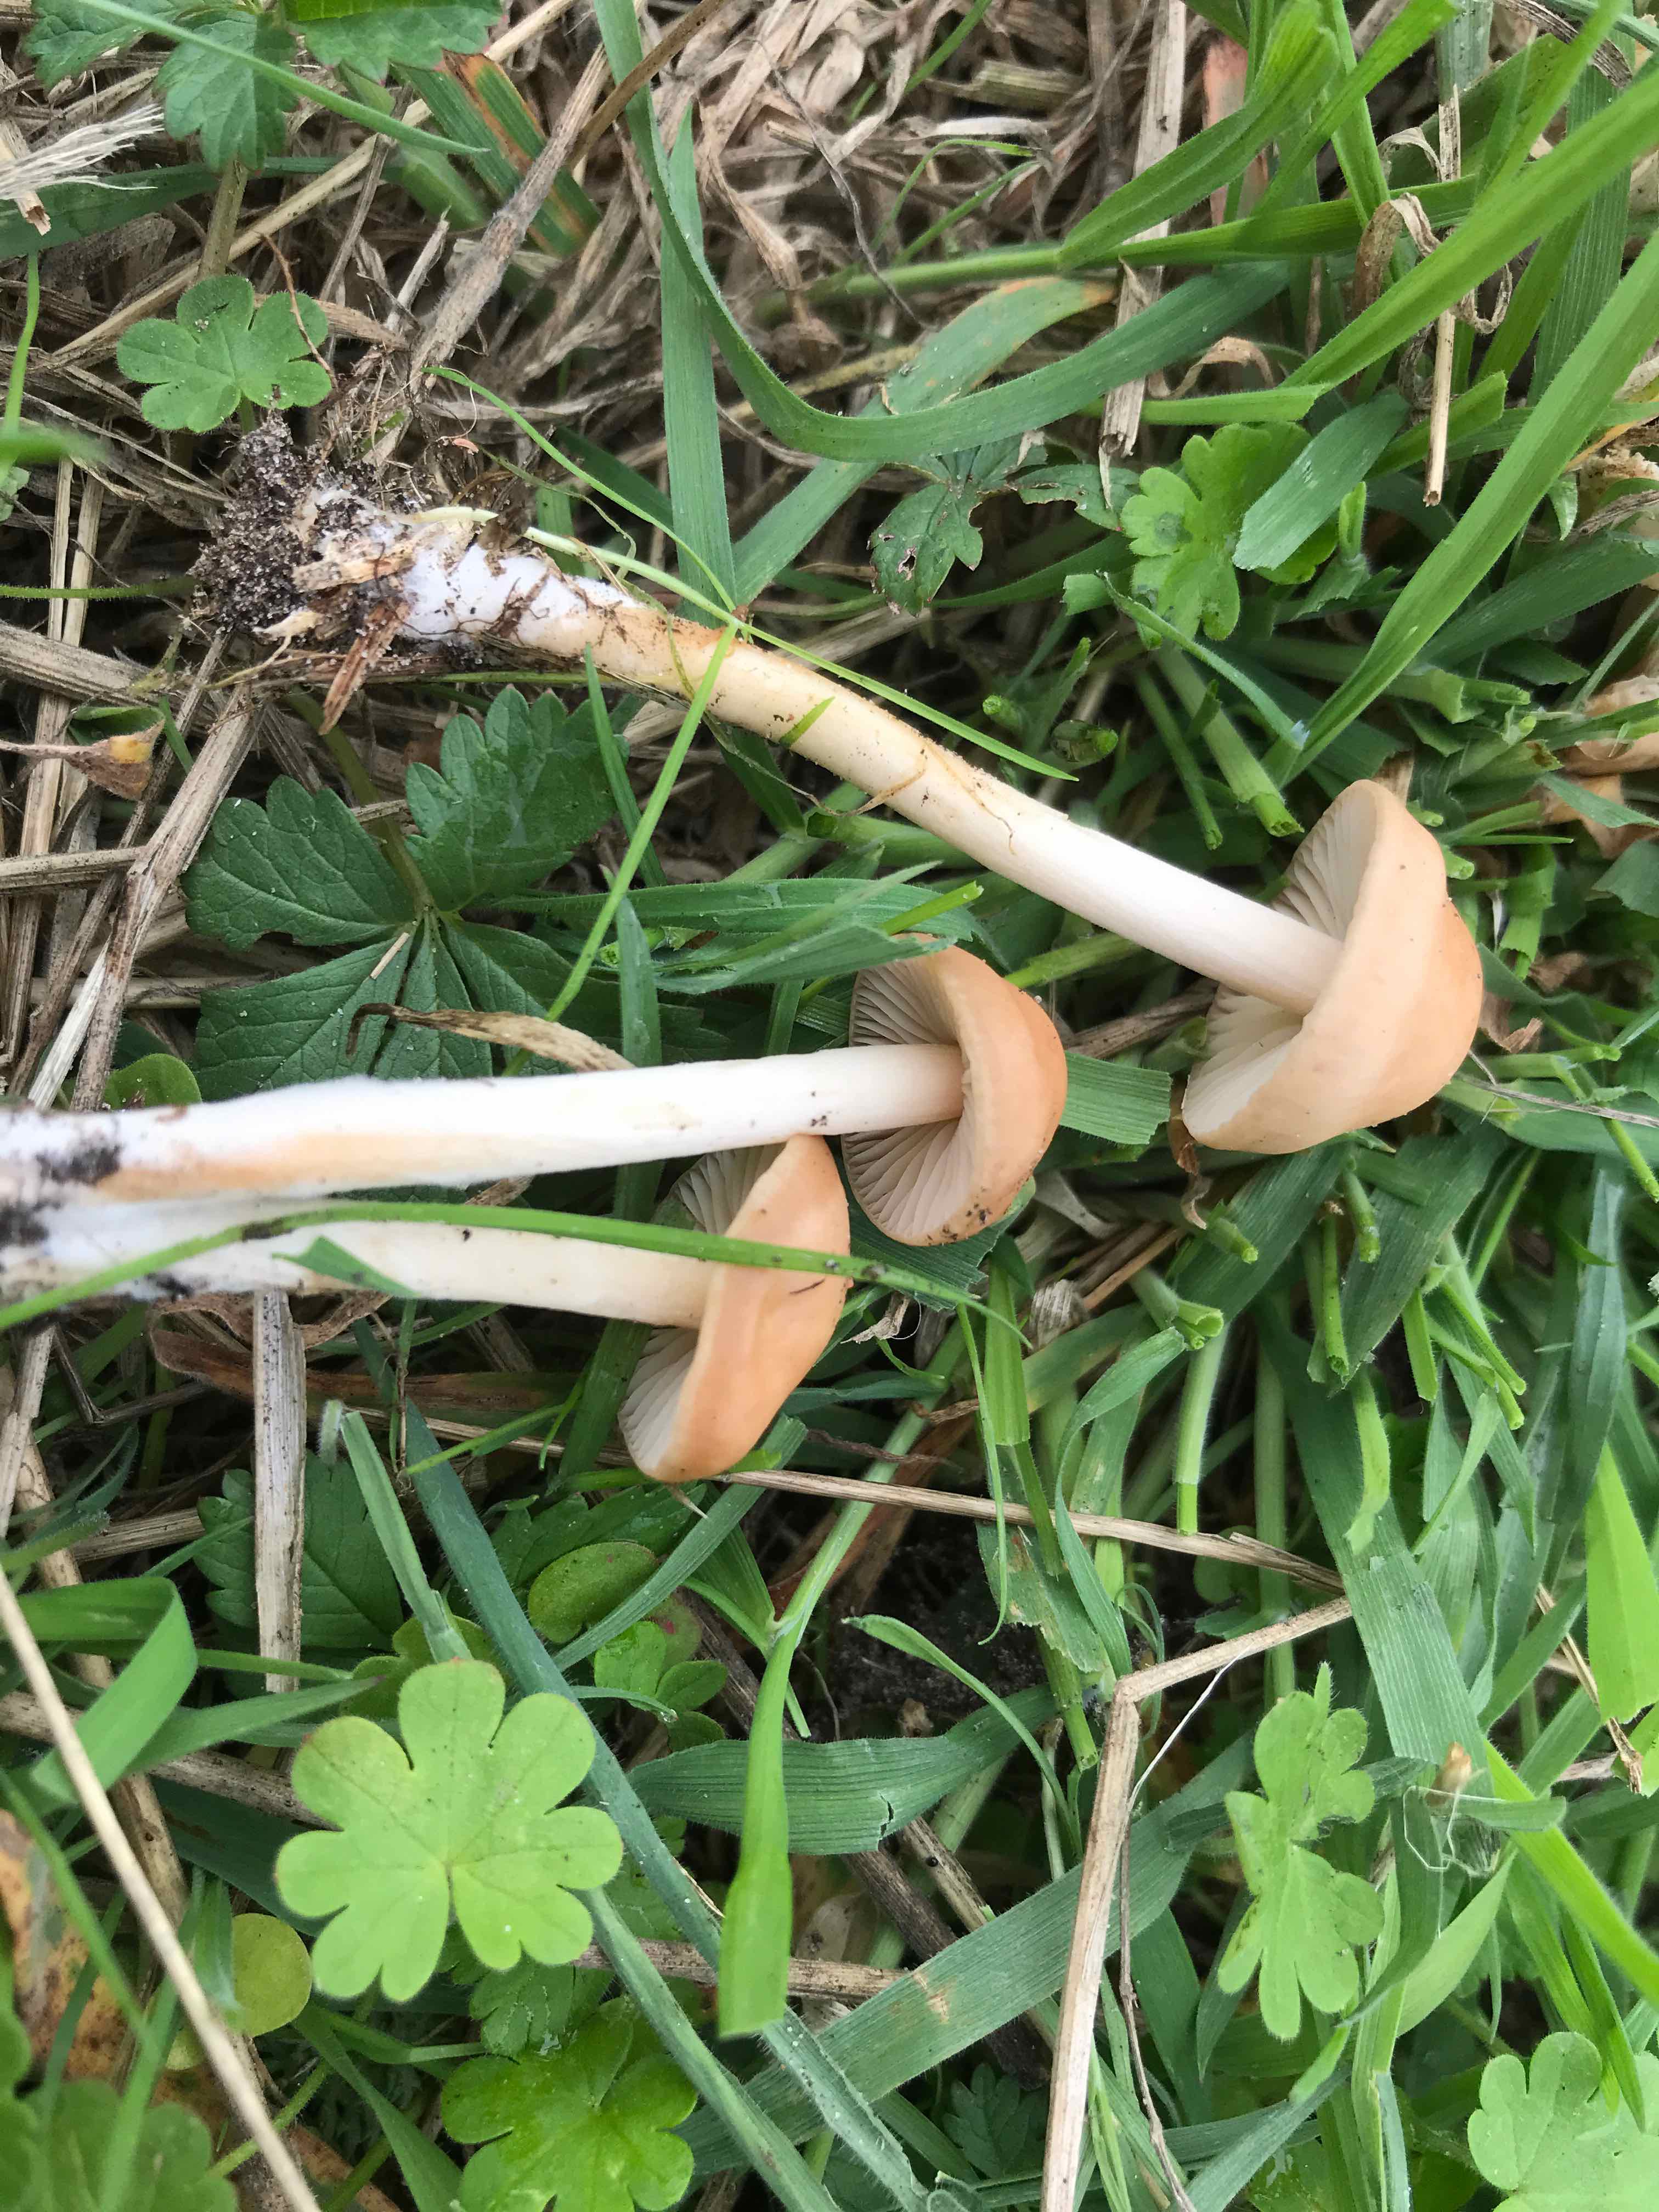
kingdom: Fungi
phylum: Basidiomycota
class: Agaricomycetes
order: Agaricales
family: Marasmiaceae
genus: Marasmius
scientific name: Marasmius oreades
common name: elledans-bruskhat
